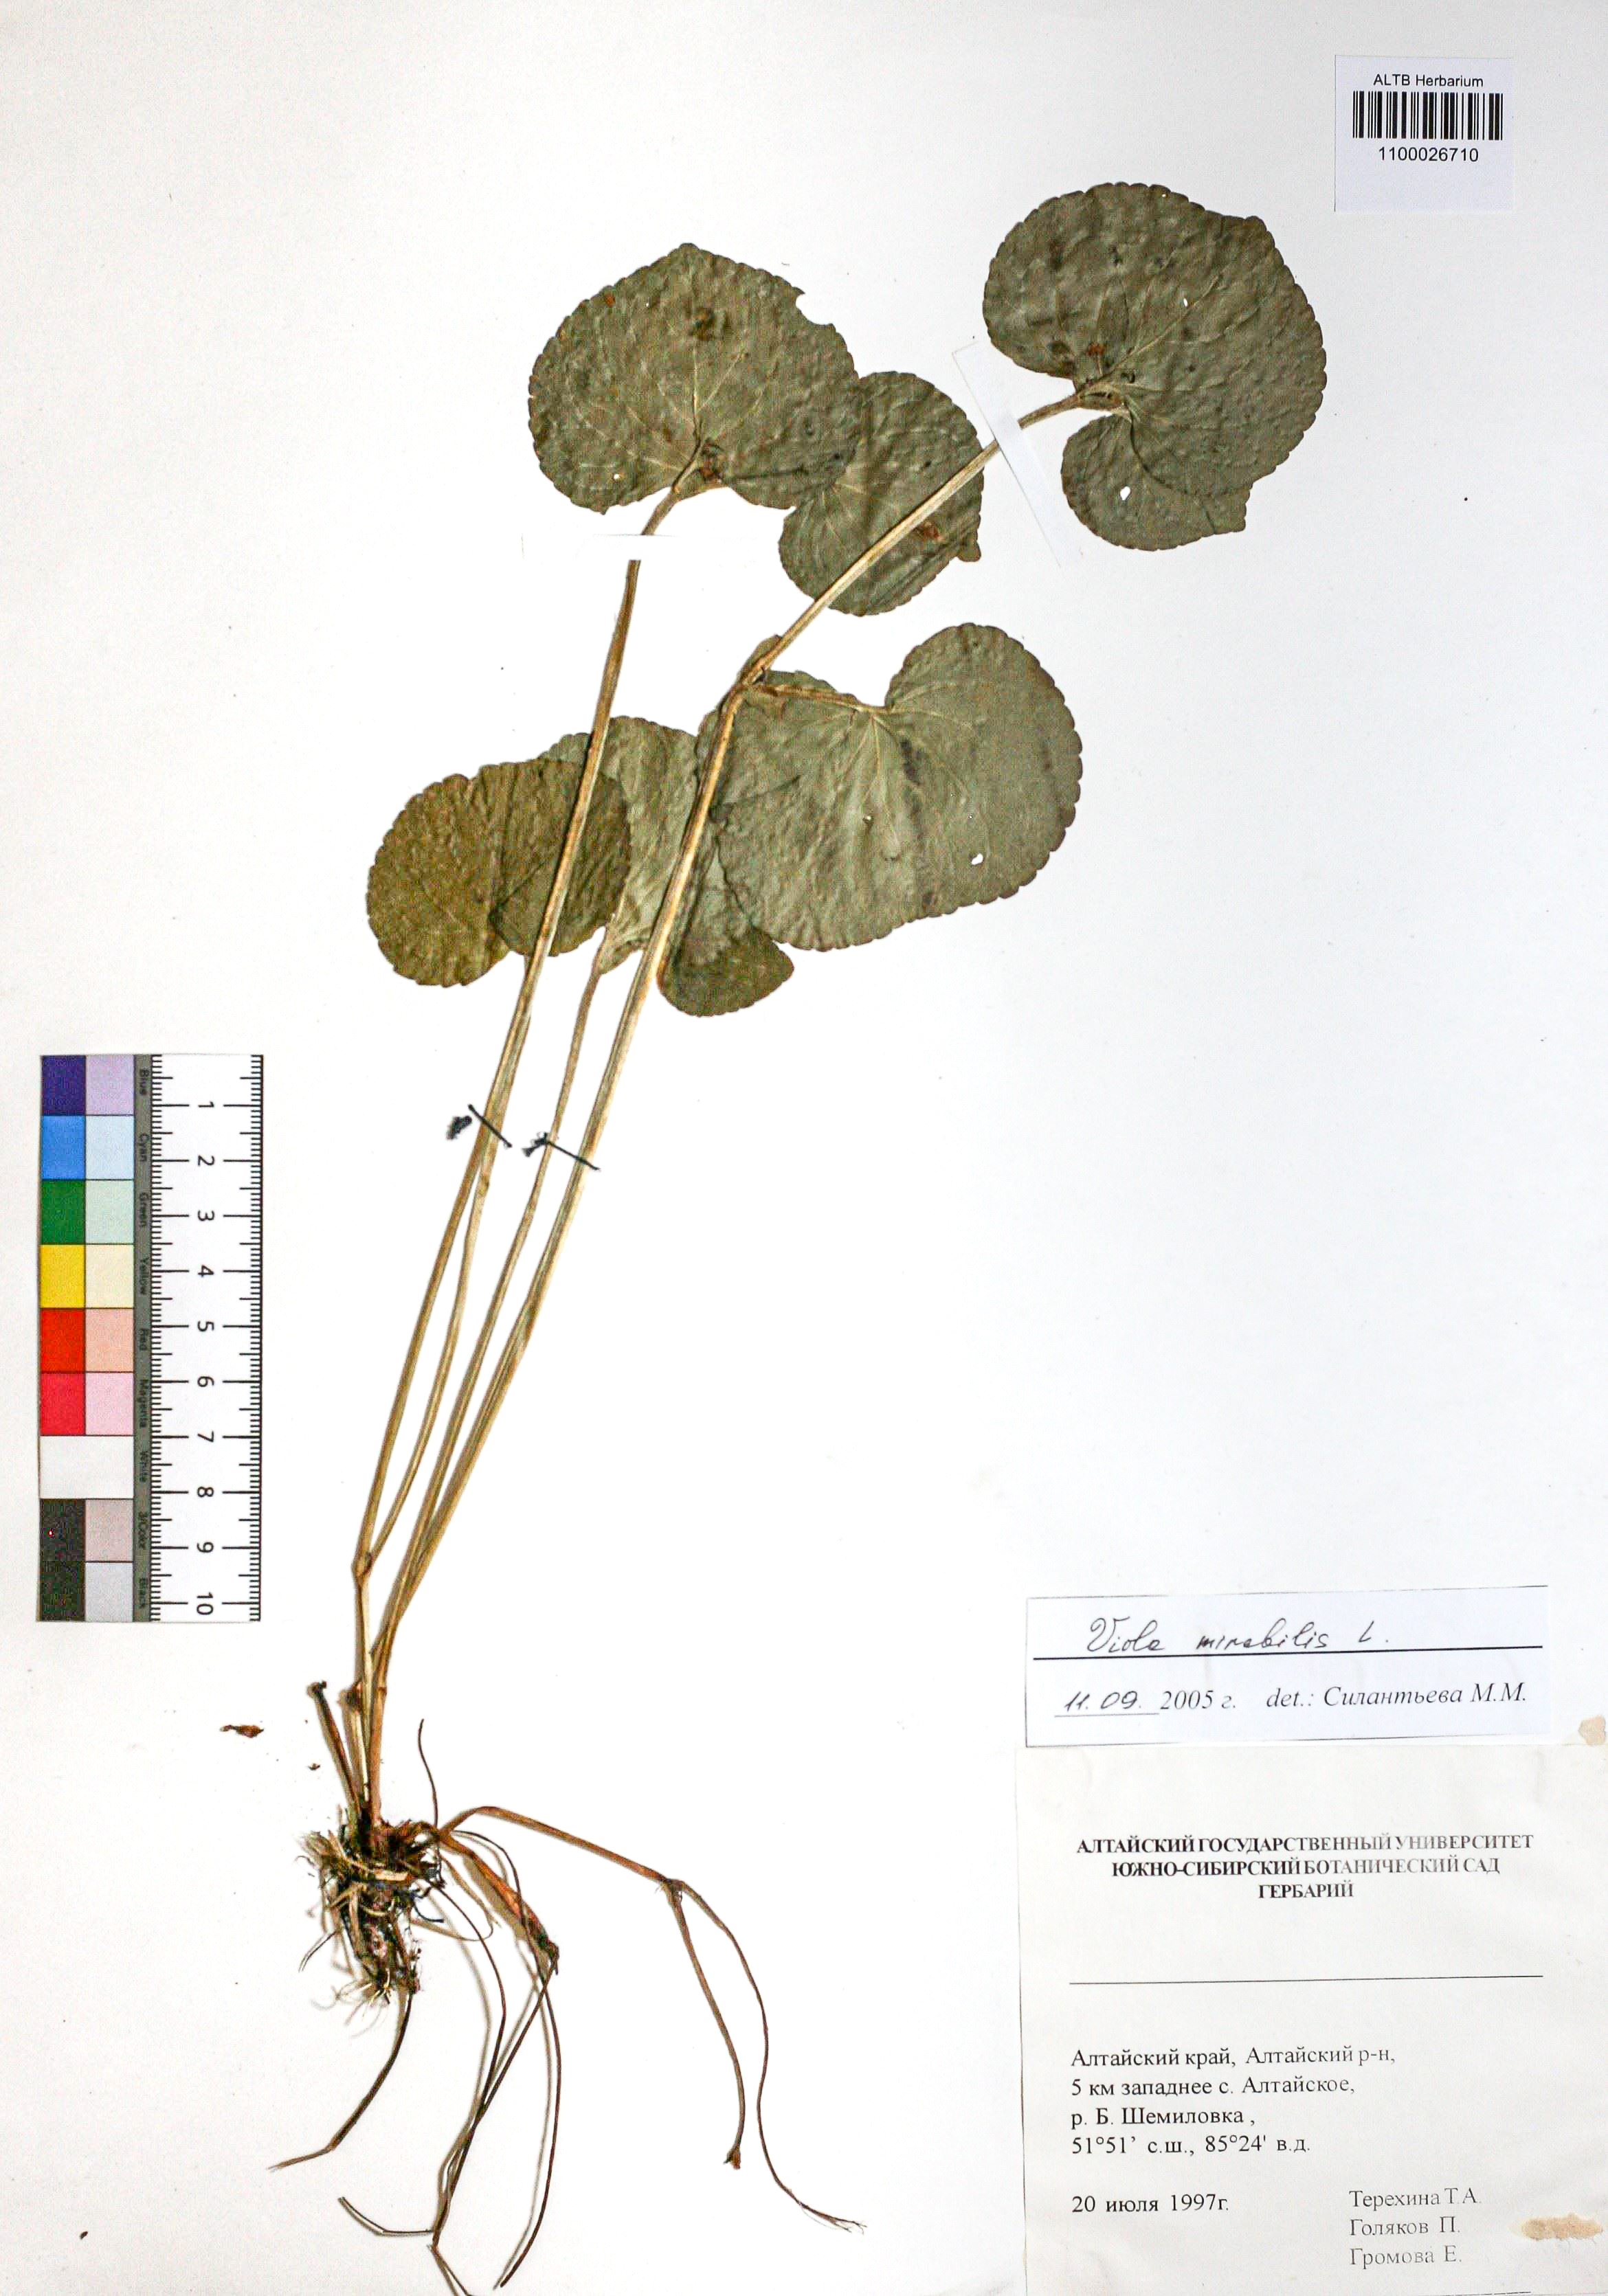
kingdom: Plantae
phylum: Tracheophyta
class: Magnoliopsida
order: Malpighiales
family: Violaceae
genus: Viola
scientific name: Viola mirabilis
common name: Wonder violet
